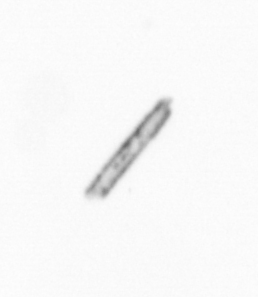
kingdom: Chromista
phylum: Ochrophyta
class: Bacillariophyceae
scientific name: Bacillariophyceae
